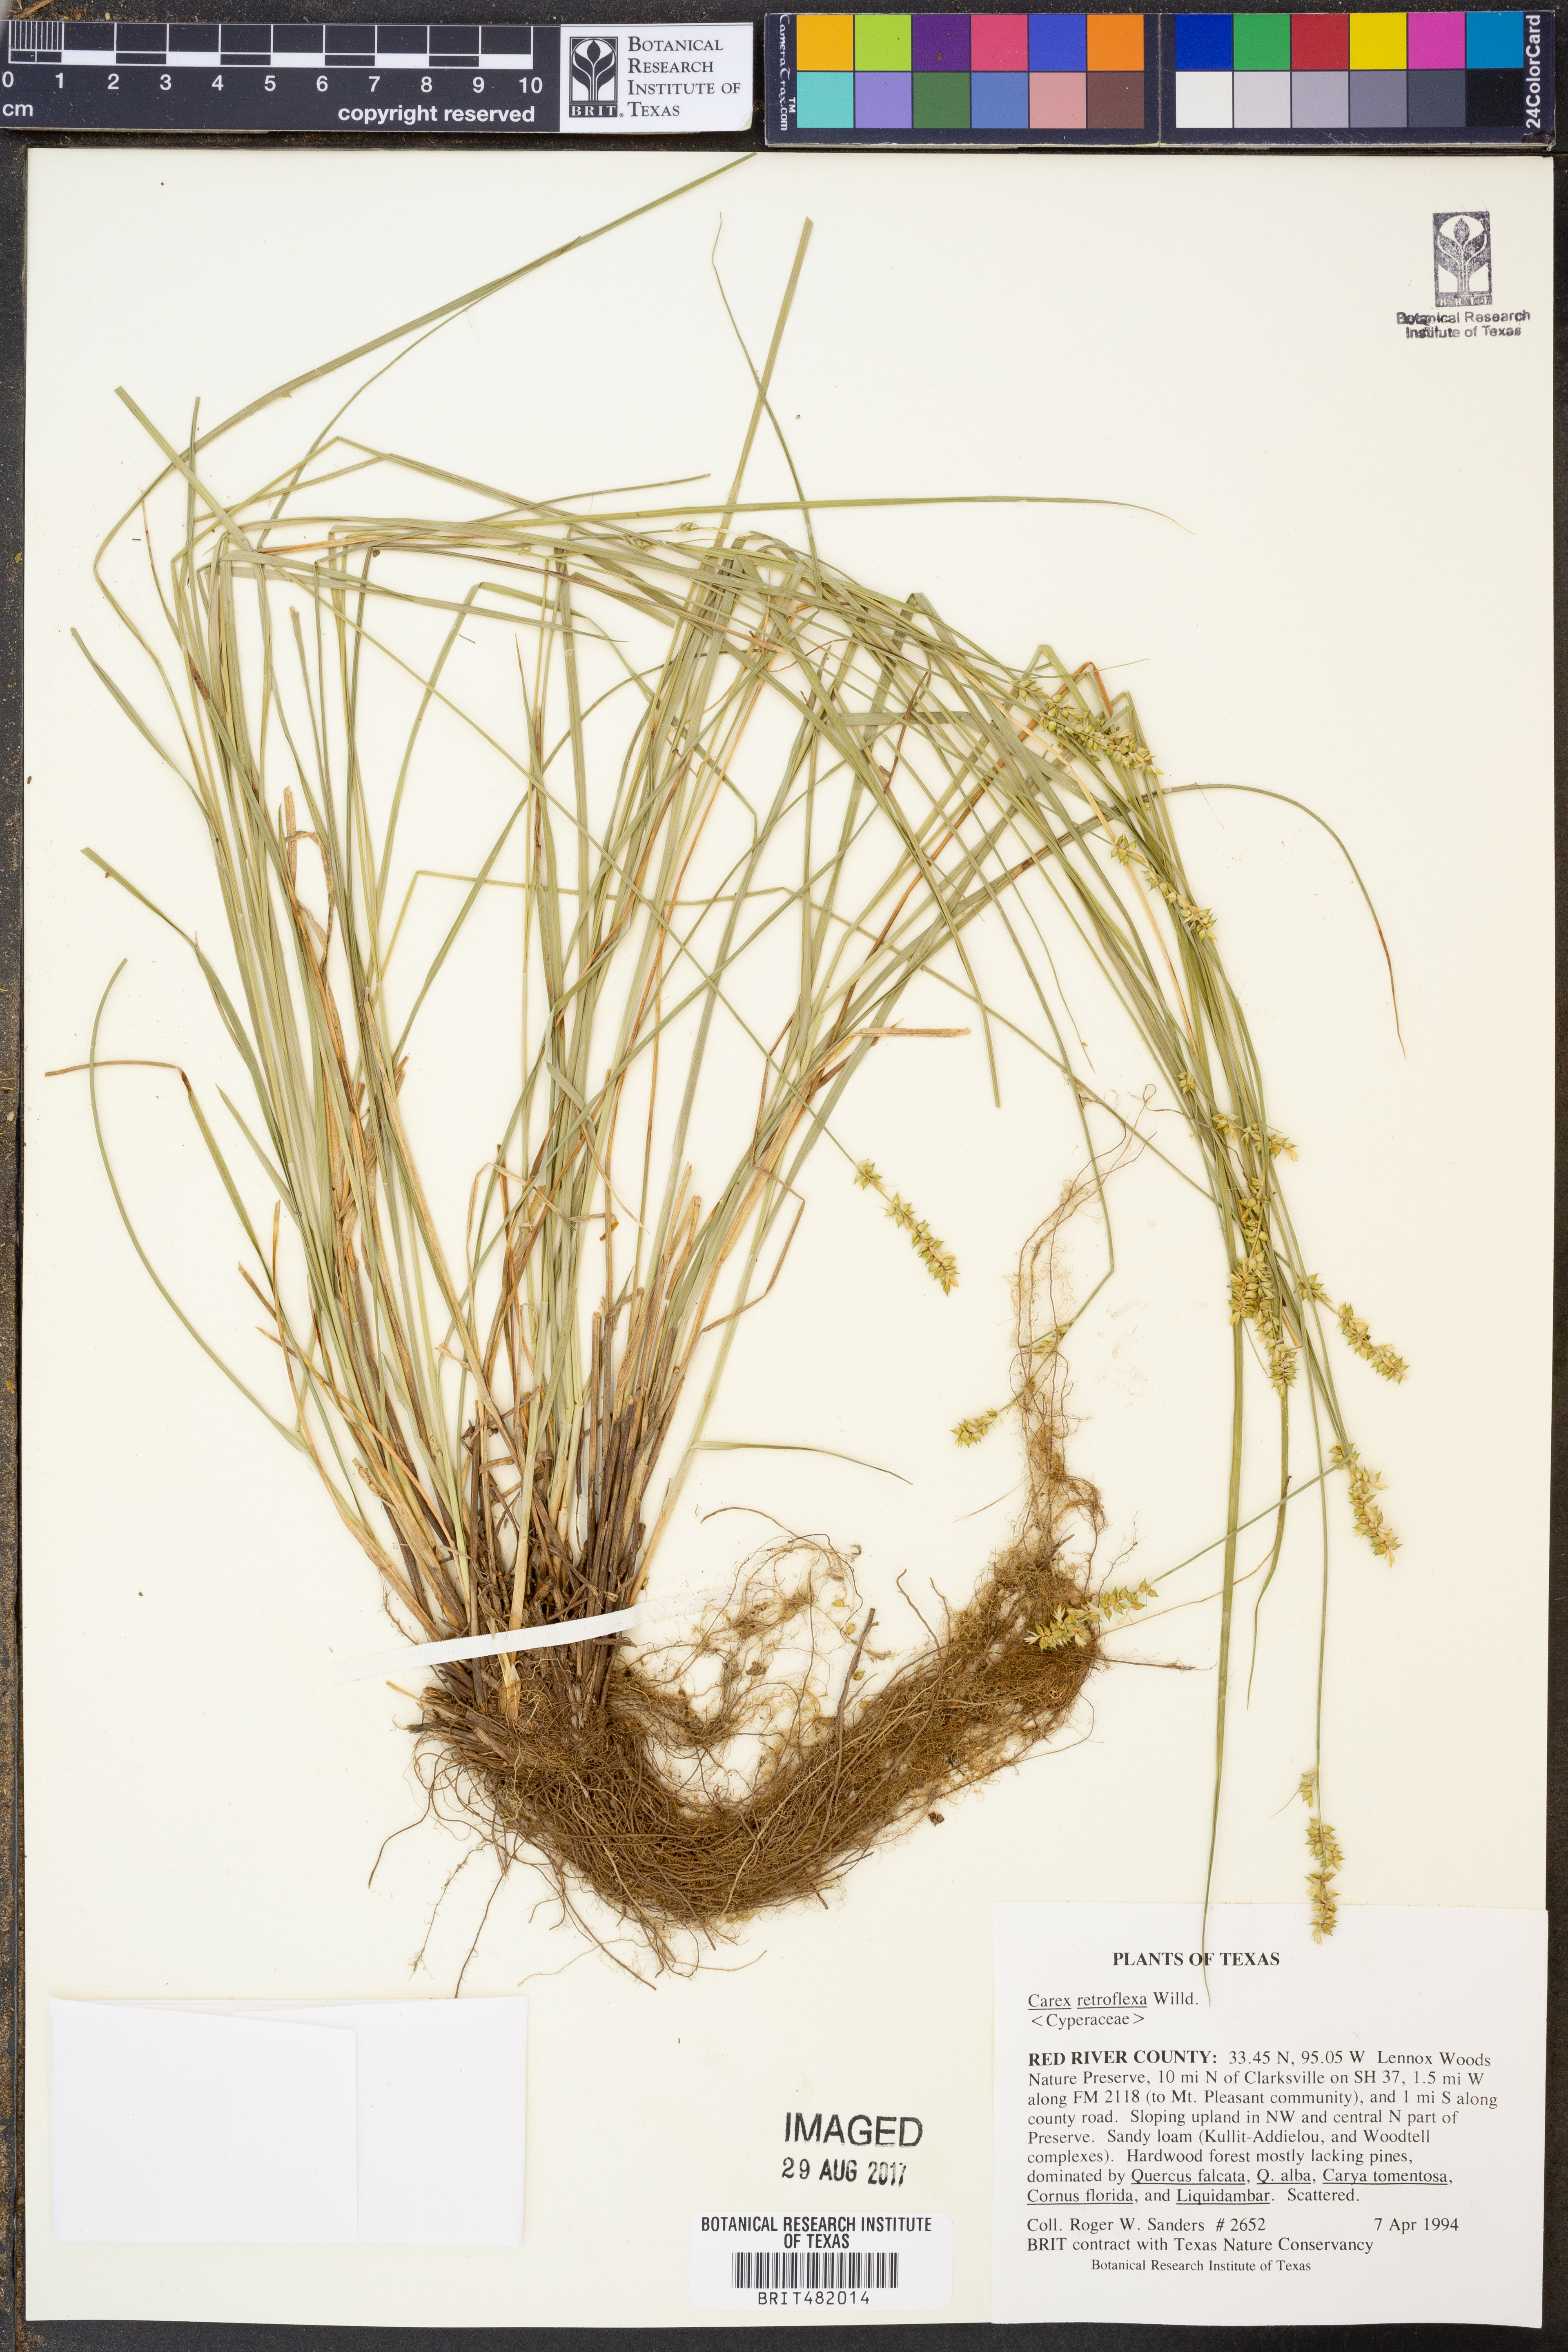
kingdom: Plantae
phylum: Tracheophyta
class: Liliopsida
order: Poales
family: Cyperaceae
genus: Carex
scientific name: Carex retroflexa
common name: Reflexed sedge
